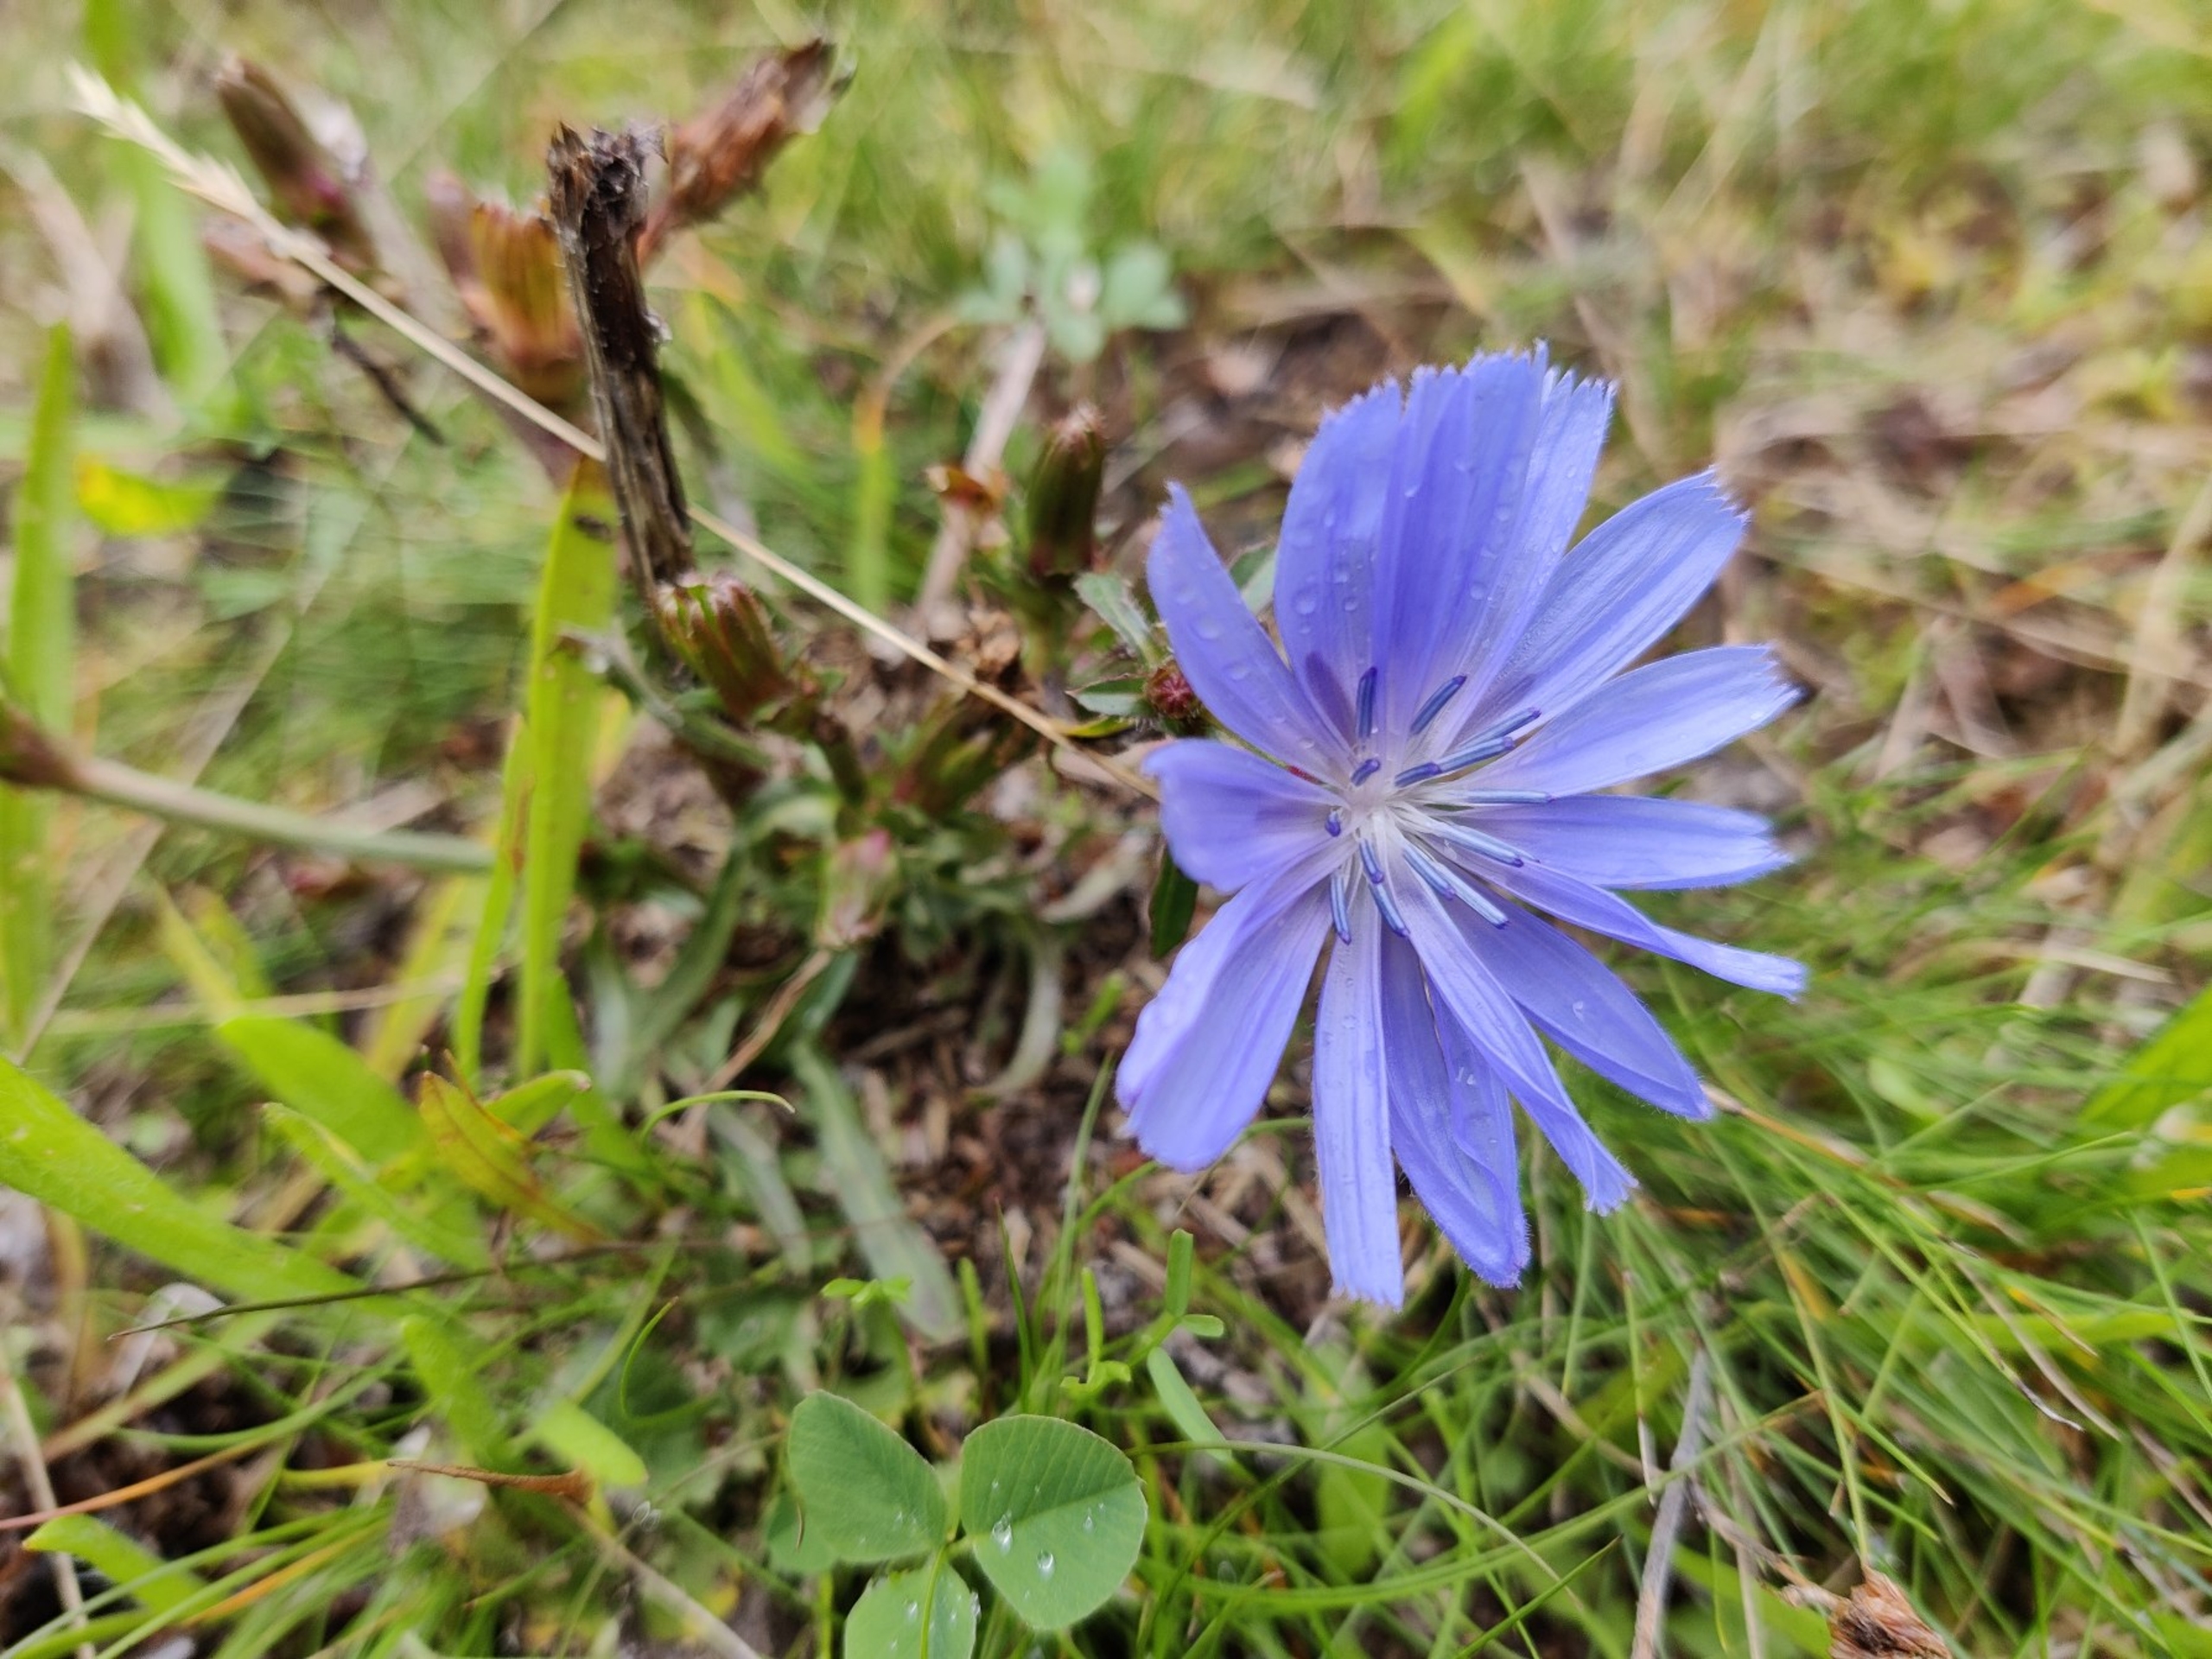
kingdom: Plantae
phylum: Tracheophyta
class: Magnoliopsida
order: Asterales
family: Asteraceae
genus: Cichorium
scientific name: Cichorium intybus
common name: Cikorie
